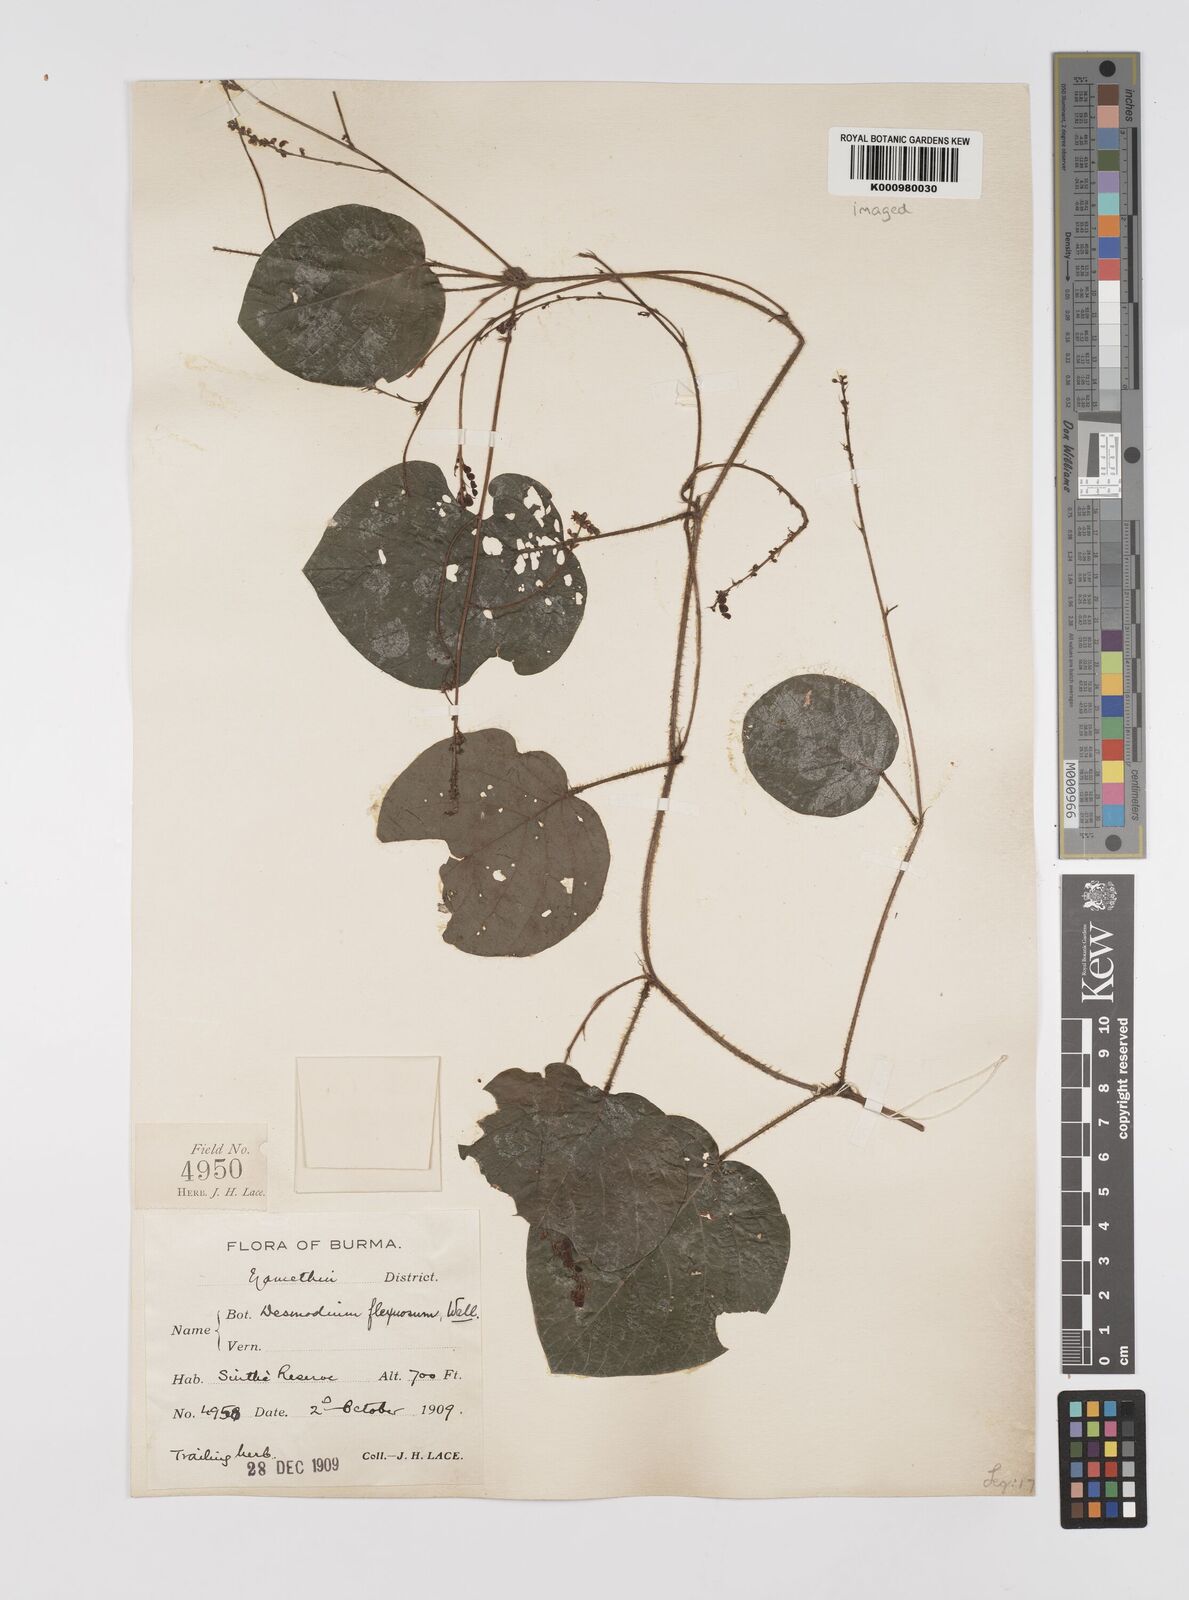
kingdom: Plantae
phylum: Tracheophyta
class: Magnoliopsida
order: Fabales
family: Fabaceae
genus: Desmodium
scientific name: Desmodium
